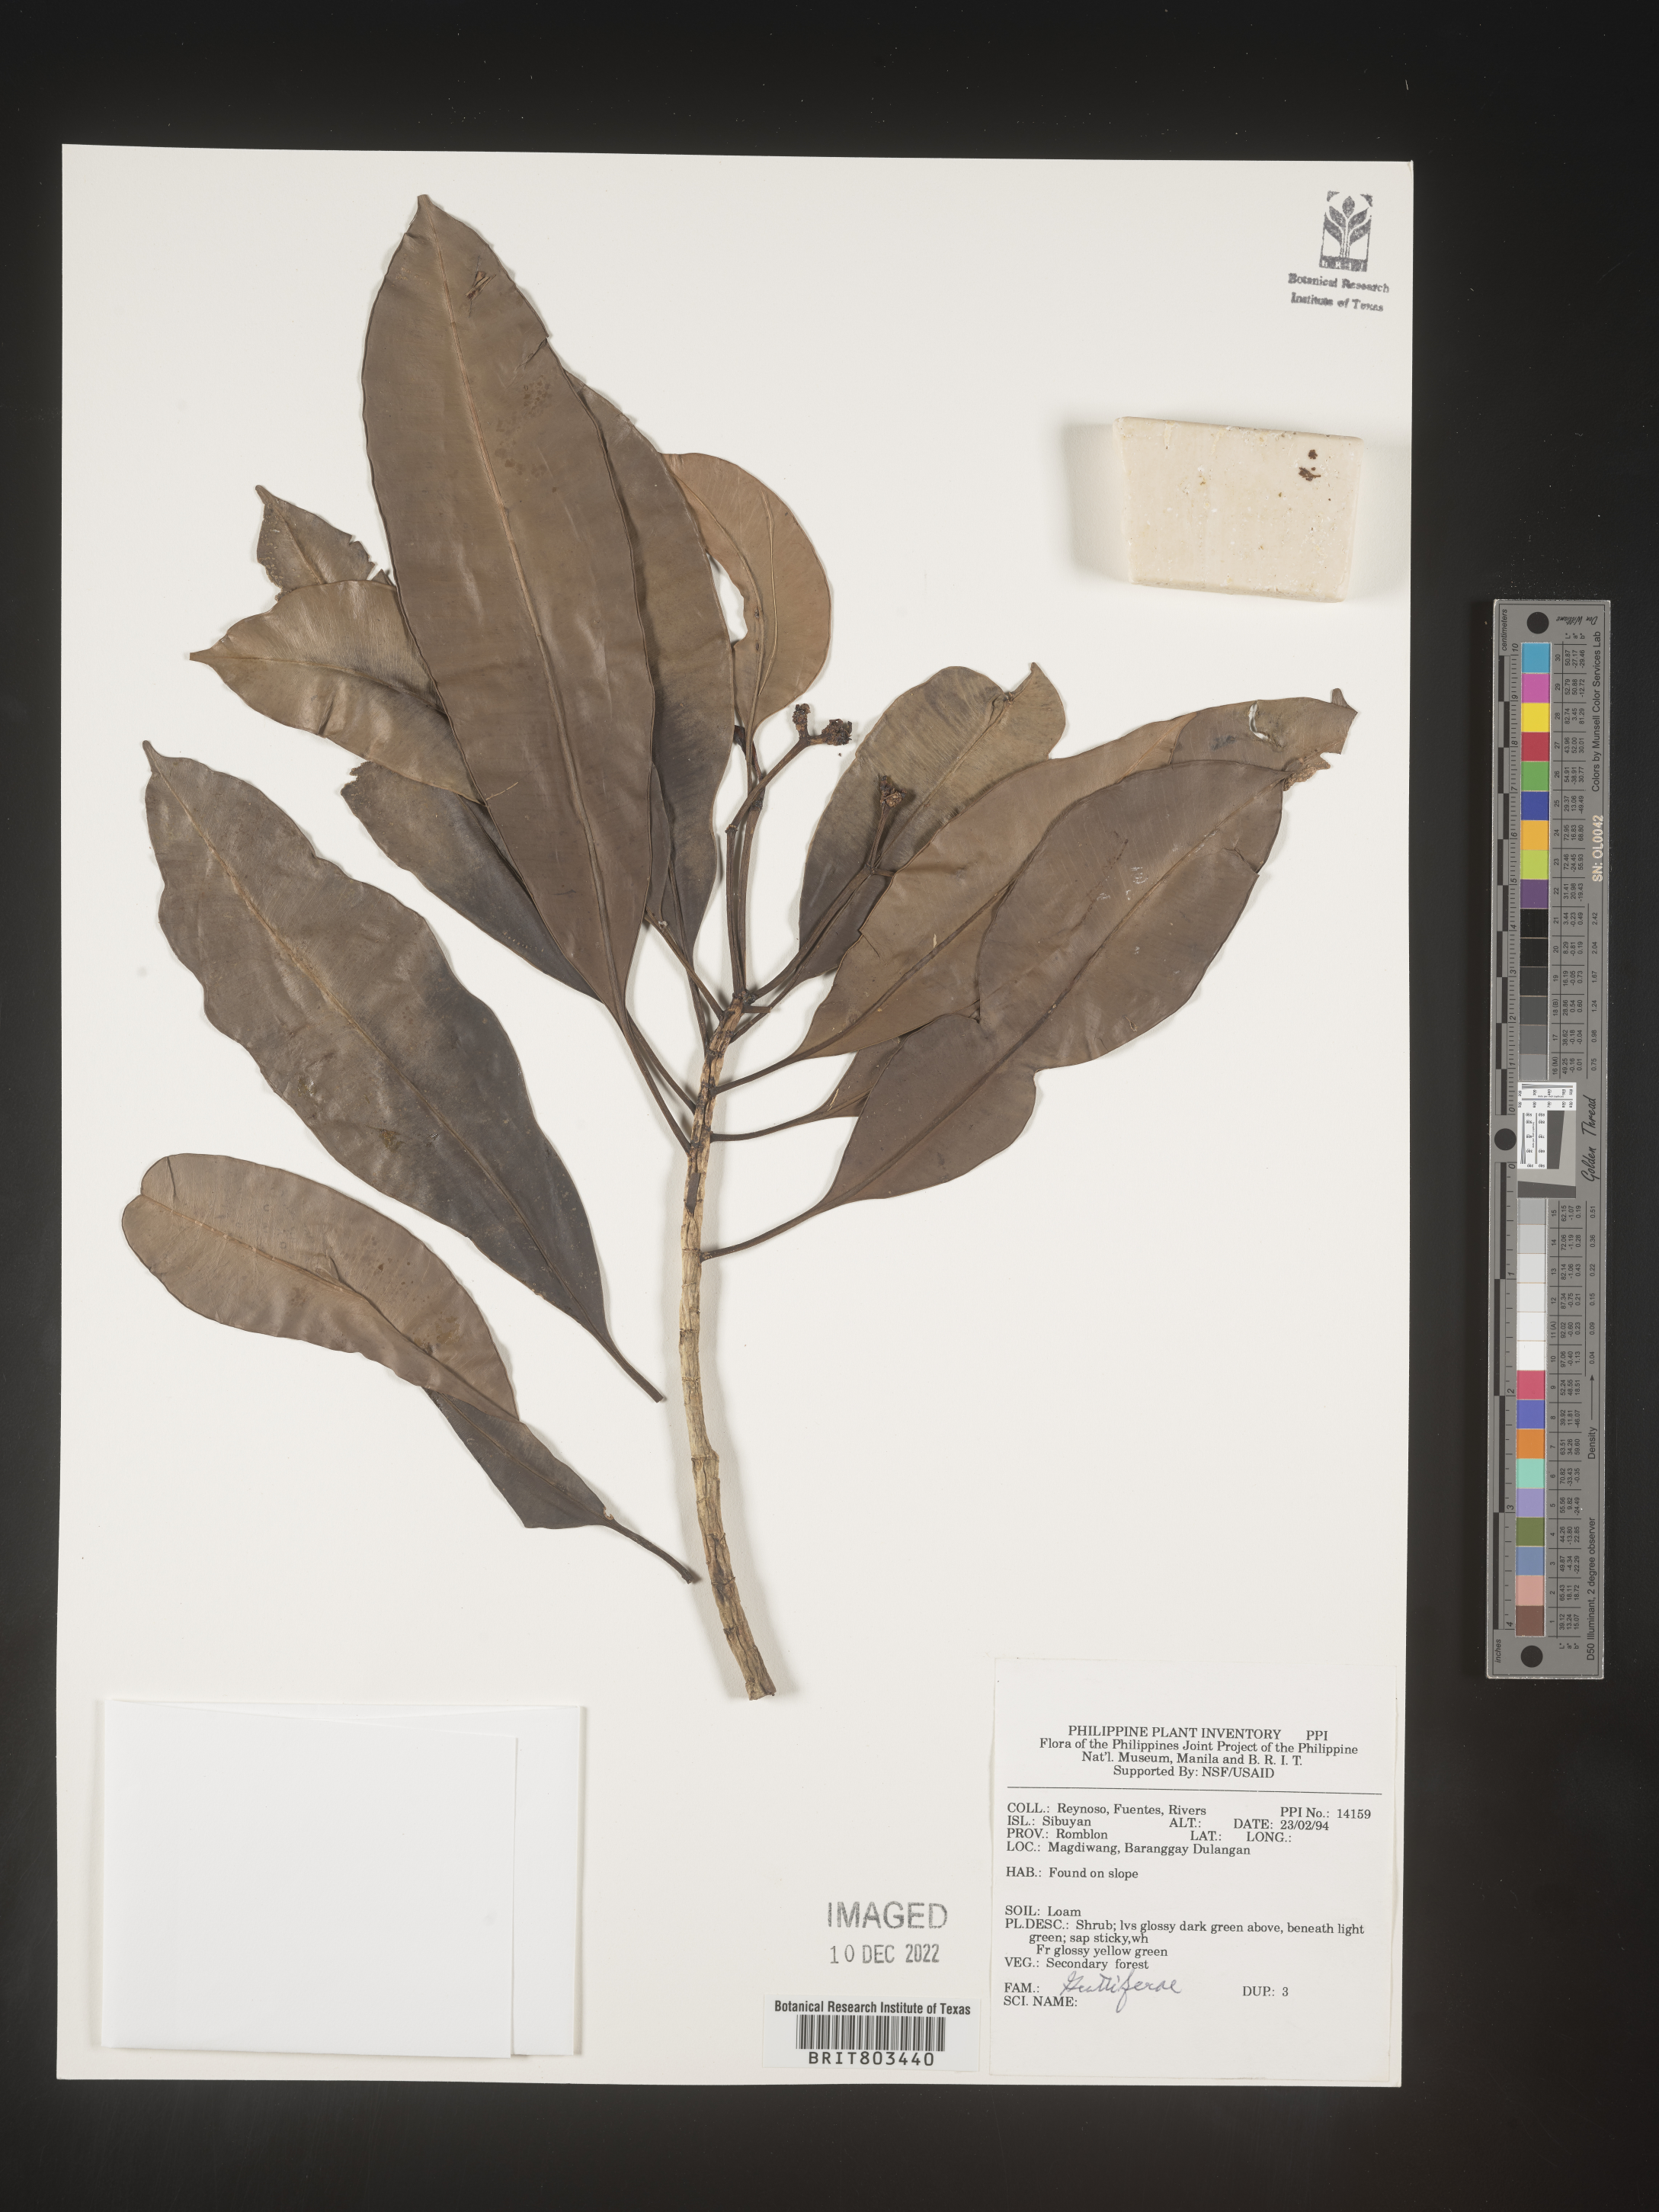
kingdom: Plantae
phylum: Tracheophyta
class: Magnoliopsida
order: Malpighiales
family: Clusiaceae
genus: Tovomita
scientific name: Tovomita
